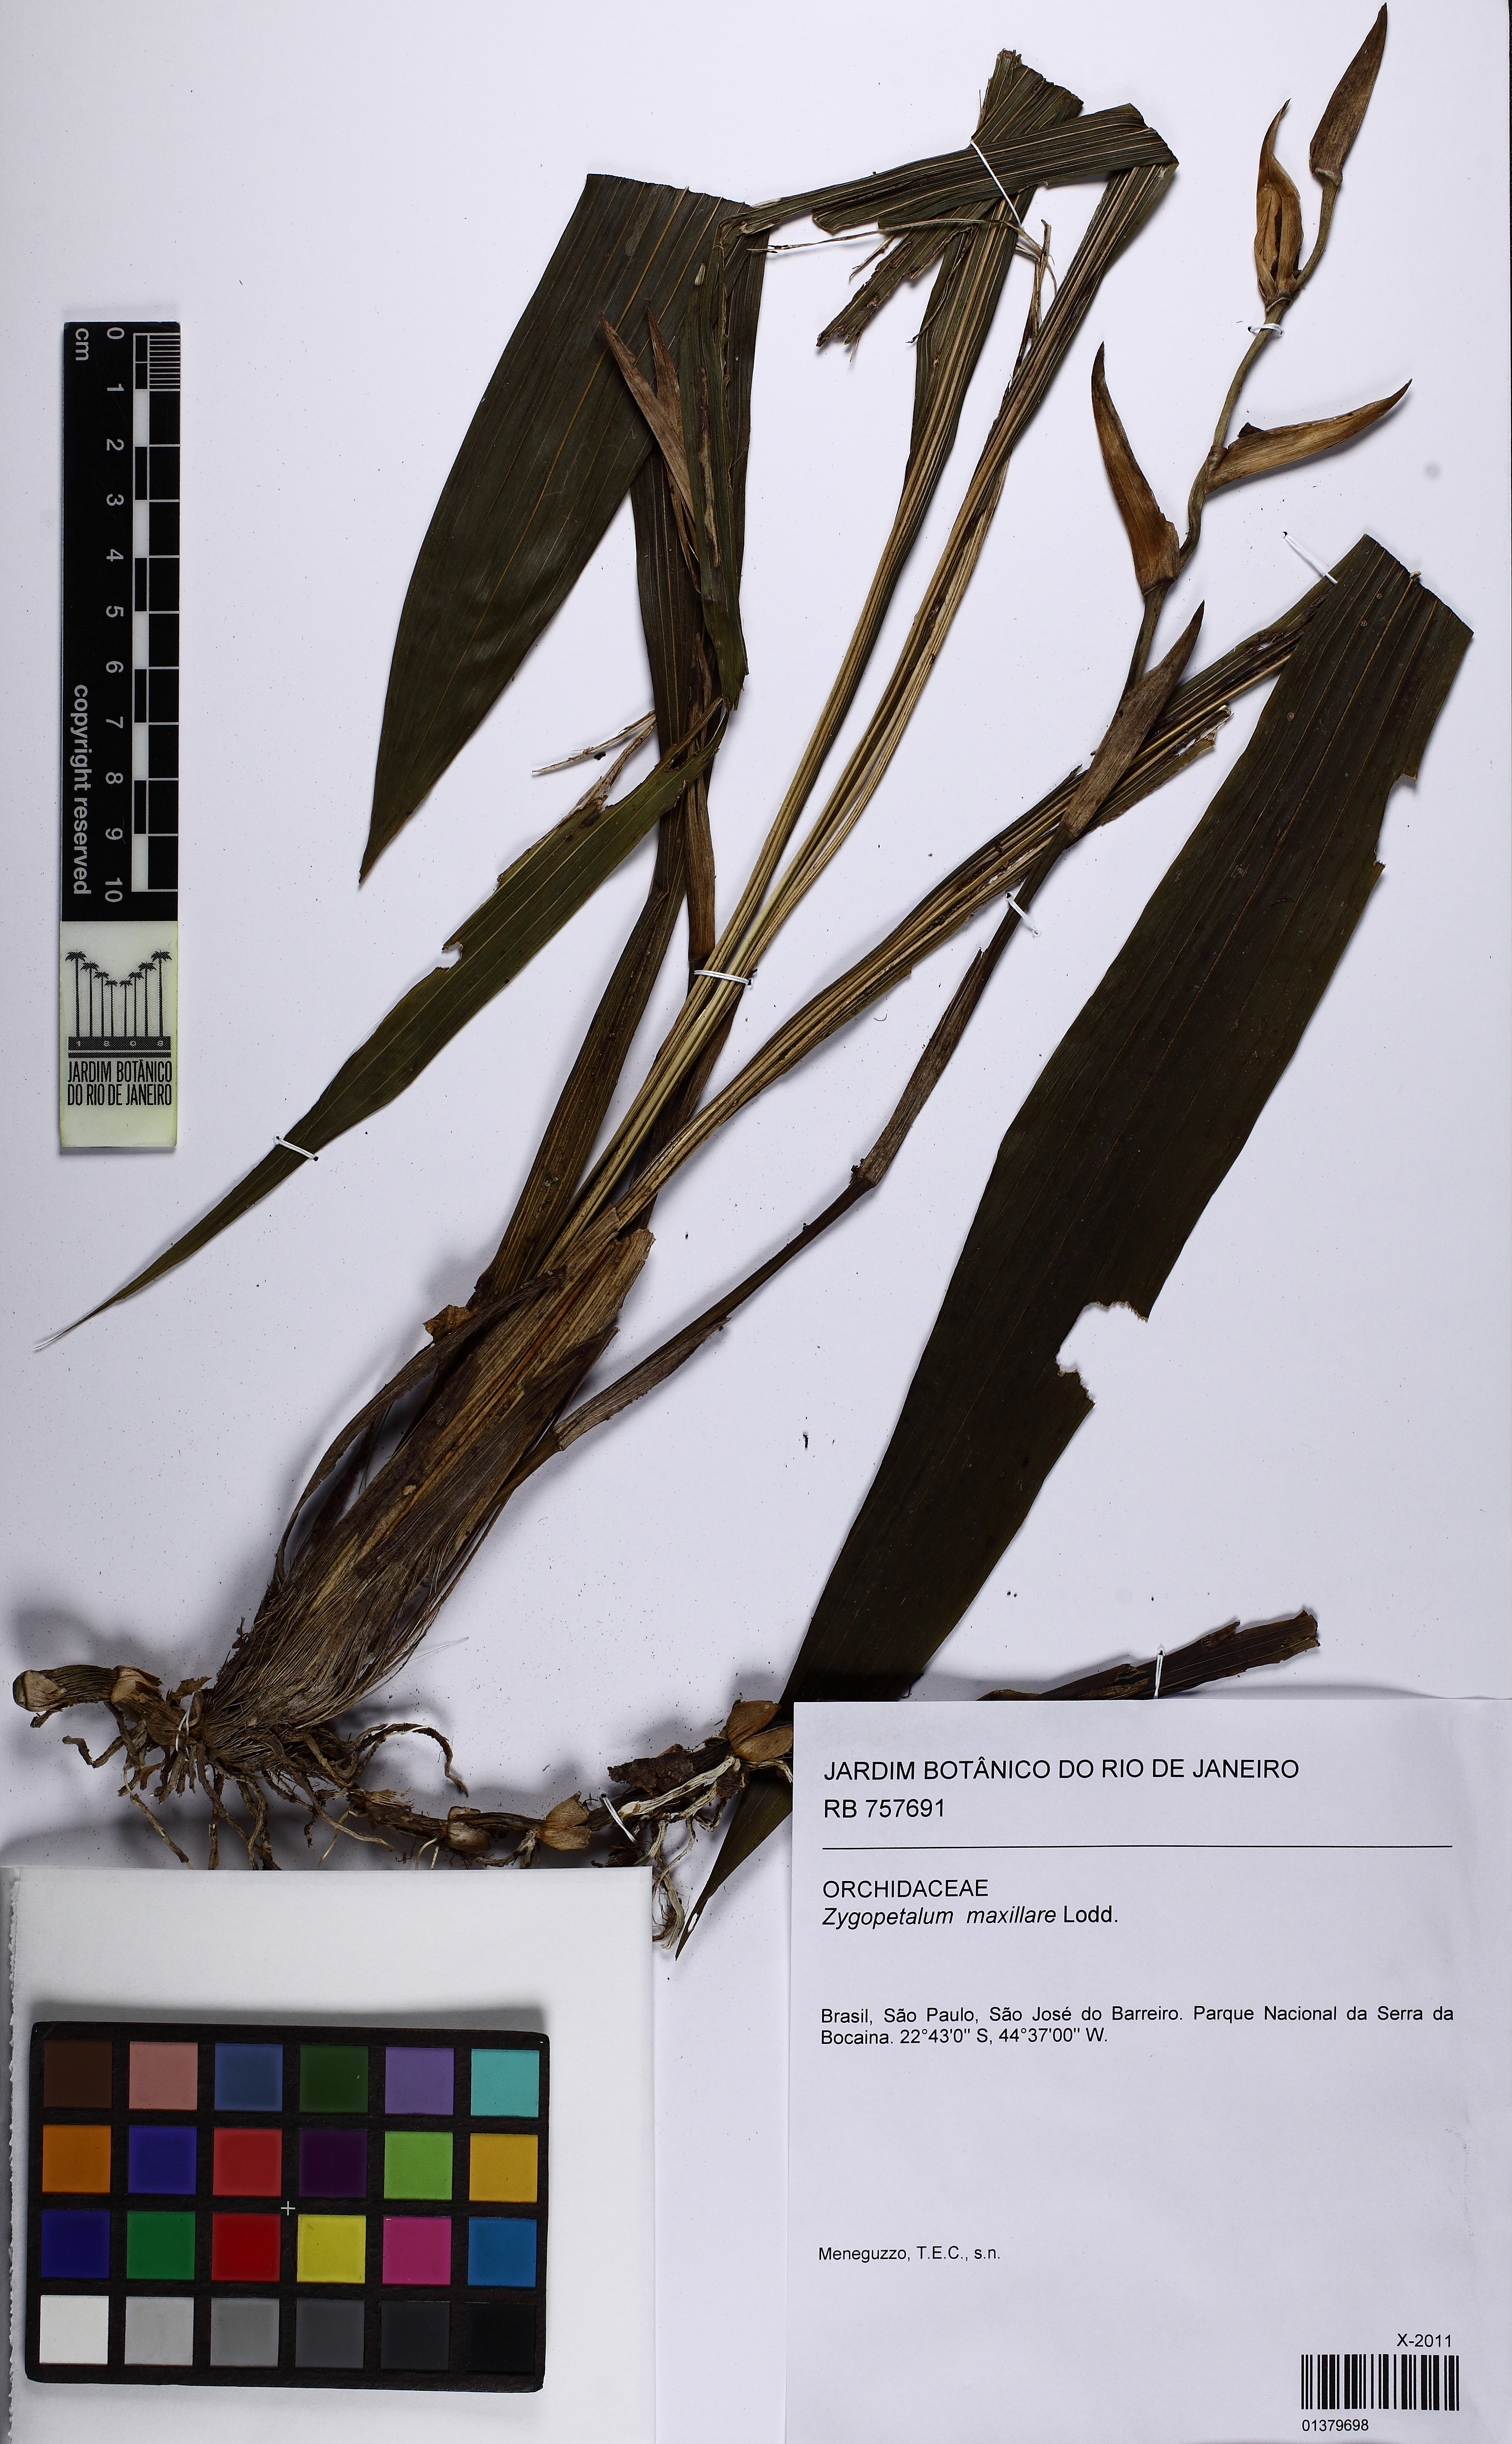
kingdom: Plantae
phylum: Tracheophyta
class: Liliopsida
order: Asparagales
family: Orchidaceae
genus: Zygopetalum
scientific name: Zygopetalum maxillare
